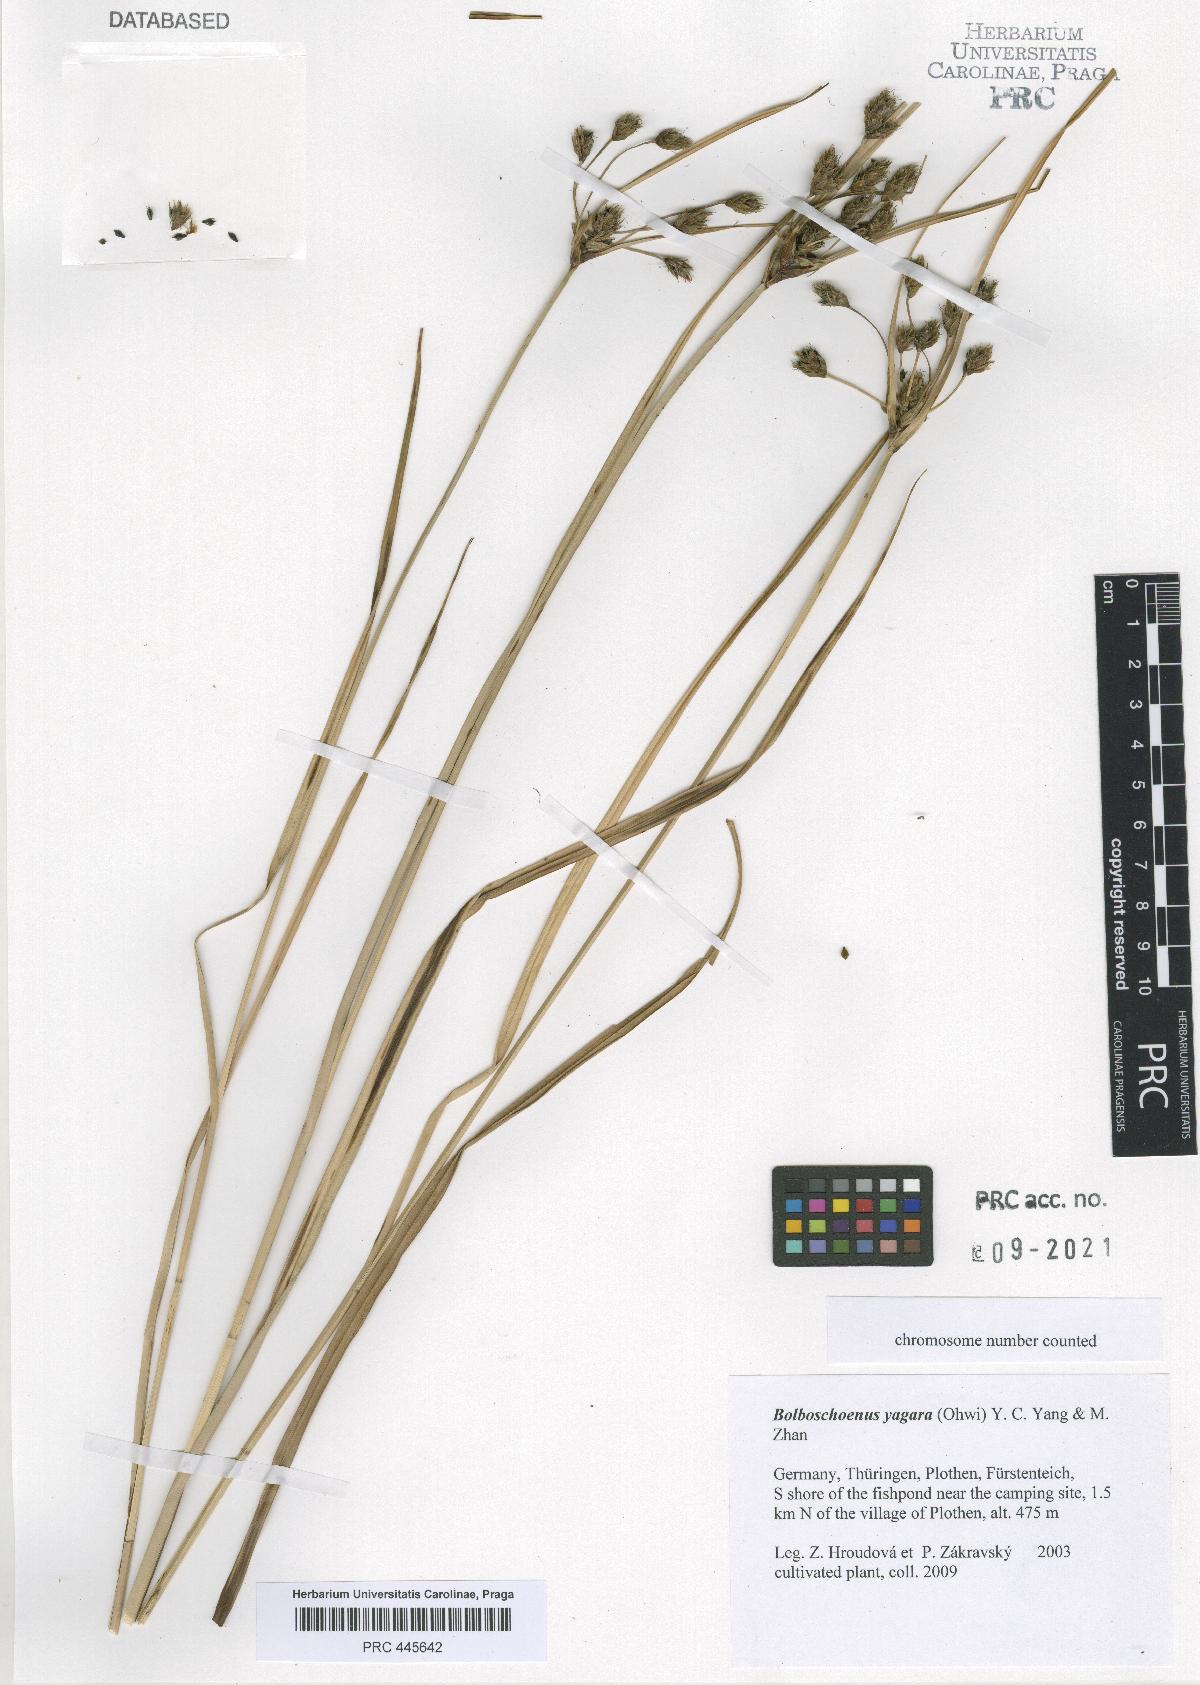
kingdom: Plantae
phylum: Tracheophyta
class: Liliopsida
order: Poales
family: Cyperaceae
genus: Bolboschoenus
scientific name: Bolboschoenus yagara
